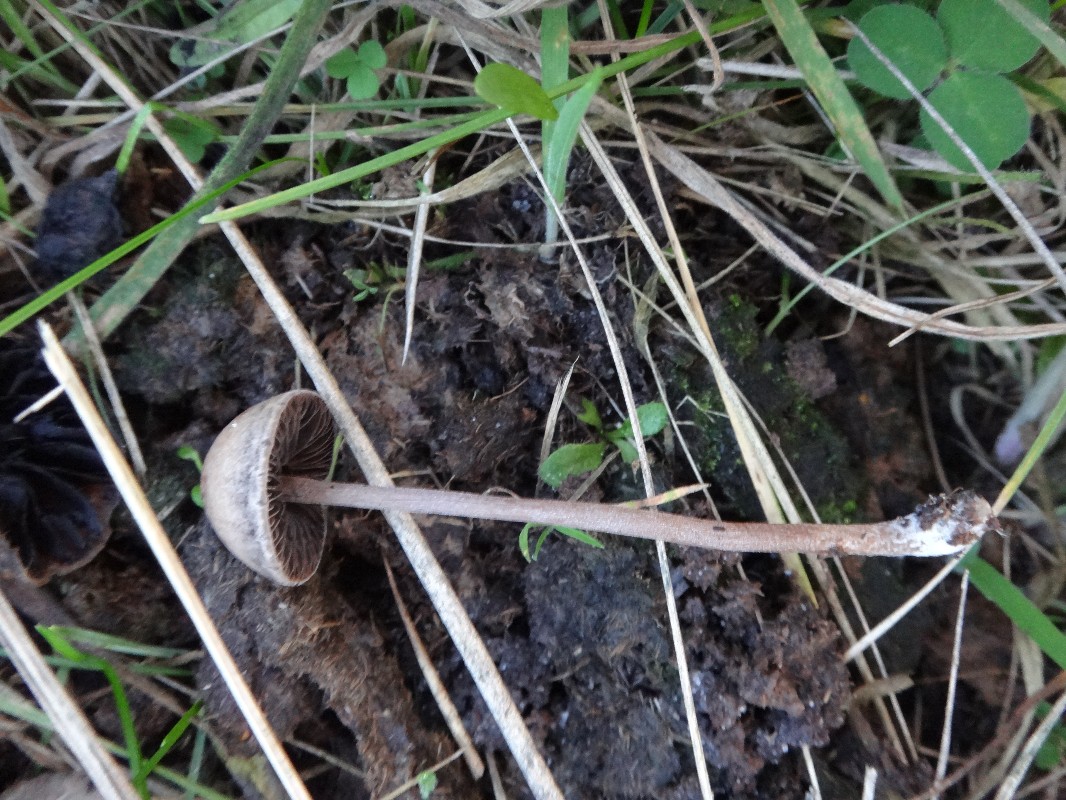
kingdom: Fungi
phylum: Basidiomycota
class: Agaricomycetes
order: Agaricales
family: Bolbitiaceae
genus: Panaeolus
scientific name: Panaeolus subfirmus
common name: fælled-glanshat
